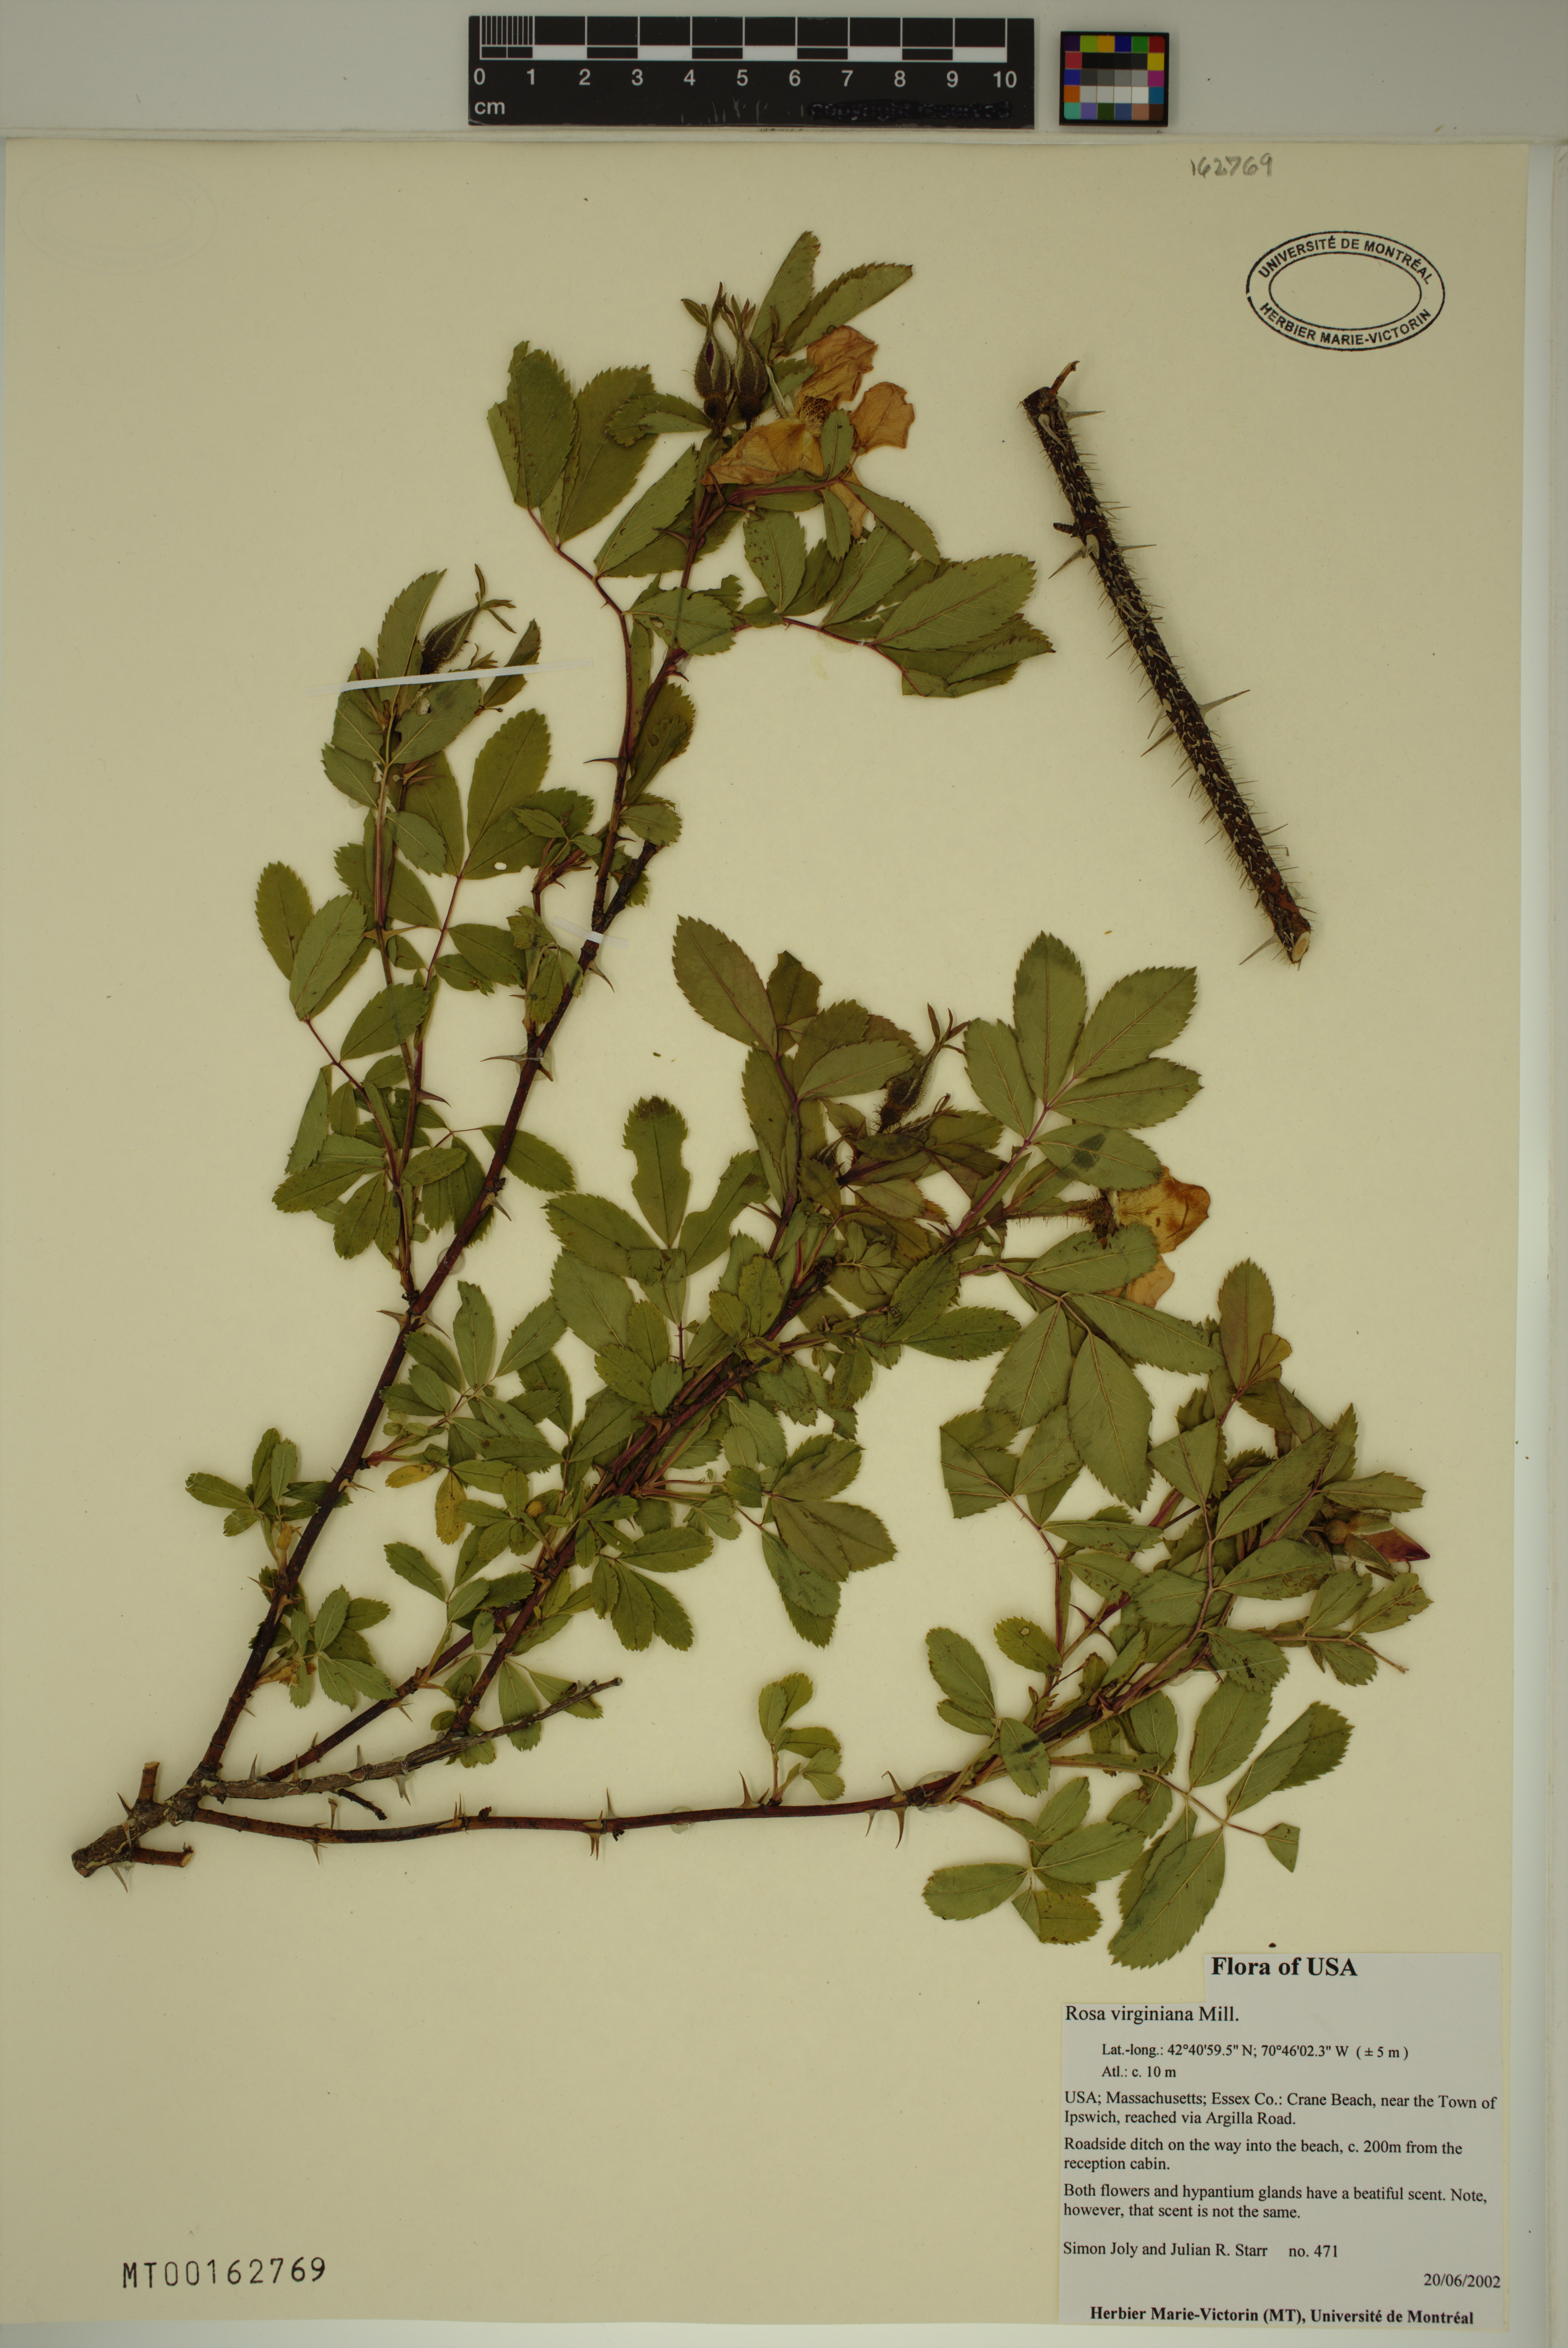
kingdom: Plantae
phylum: Tracheophyta
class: Magnoliopsida
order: Rosales
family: Rosaceae
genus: Rosa
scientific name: Rosa carolina
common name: Pasture rose
